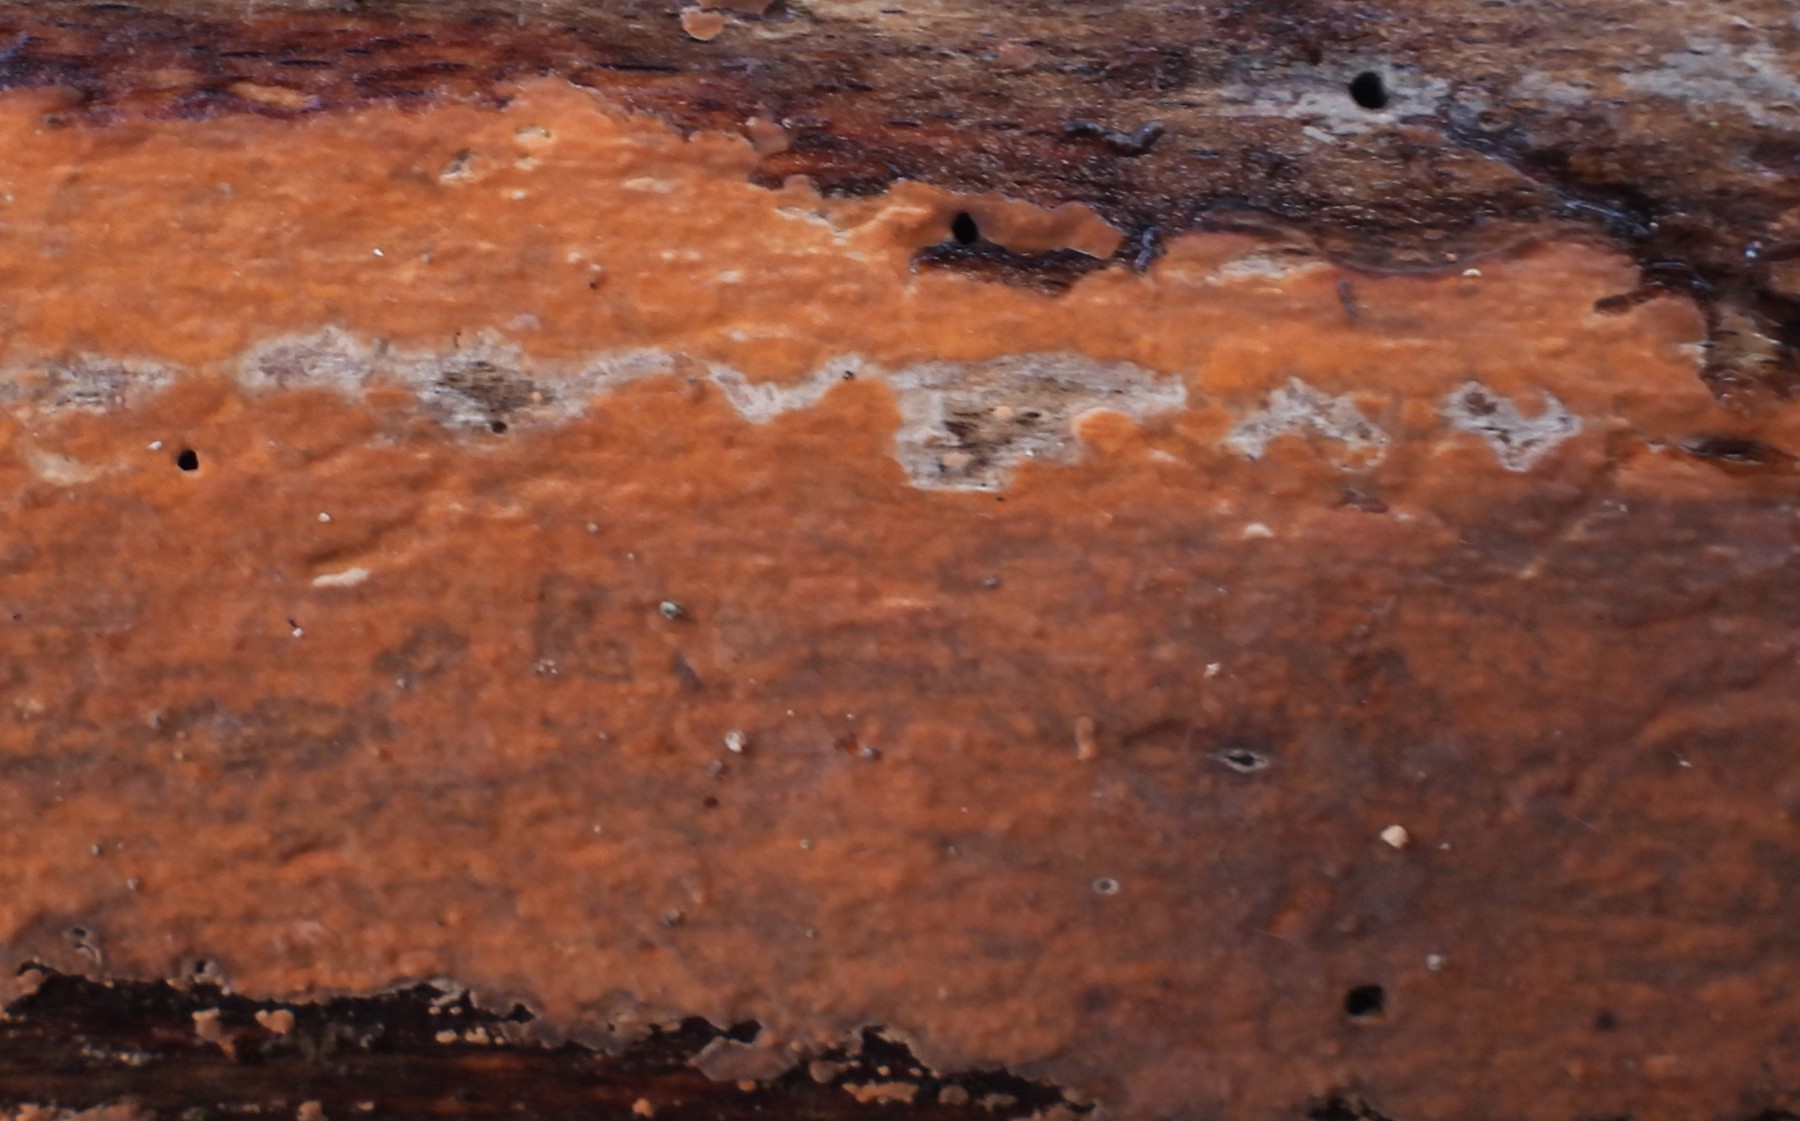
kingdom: Fungi
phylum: Basidiomycota
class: Agaricomycetes
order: Russulales
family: Peniophoraceae
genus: Peniophora
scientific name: Peniophora incarnata
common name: laksefarvet voksskind
